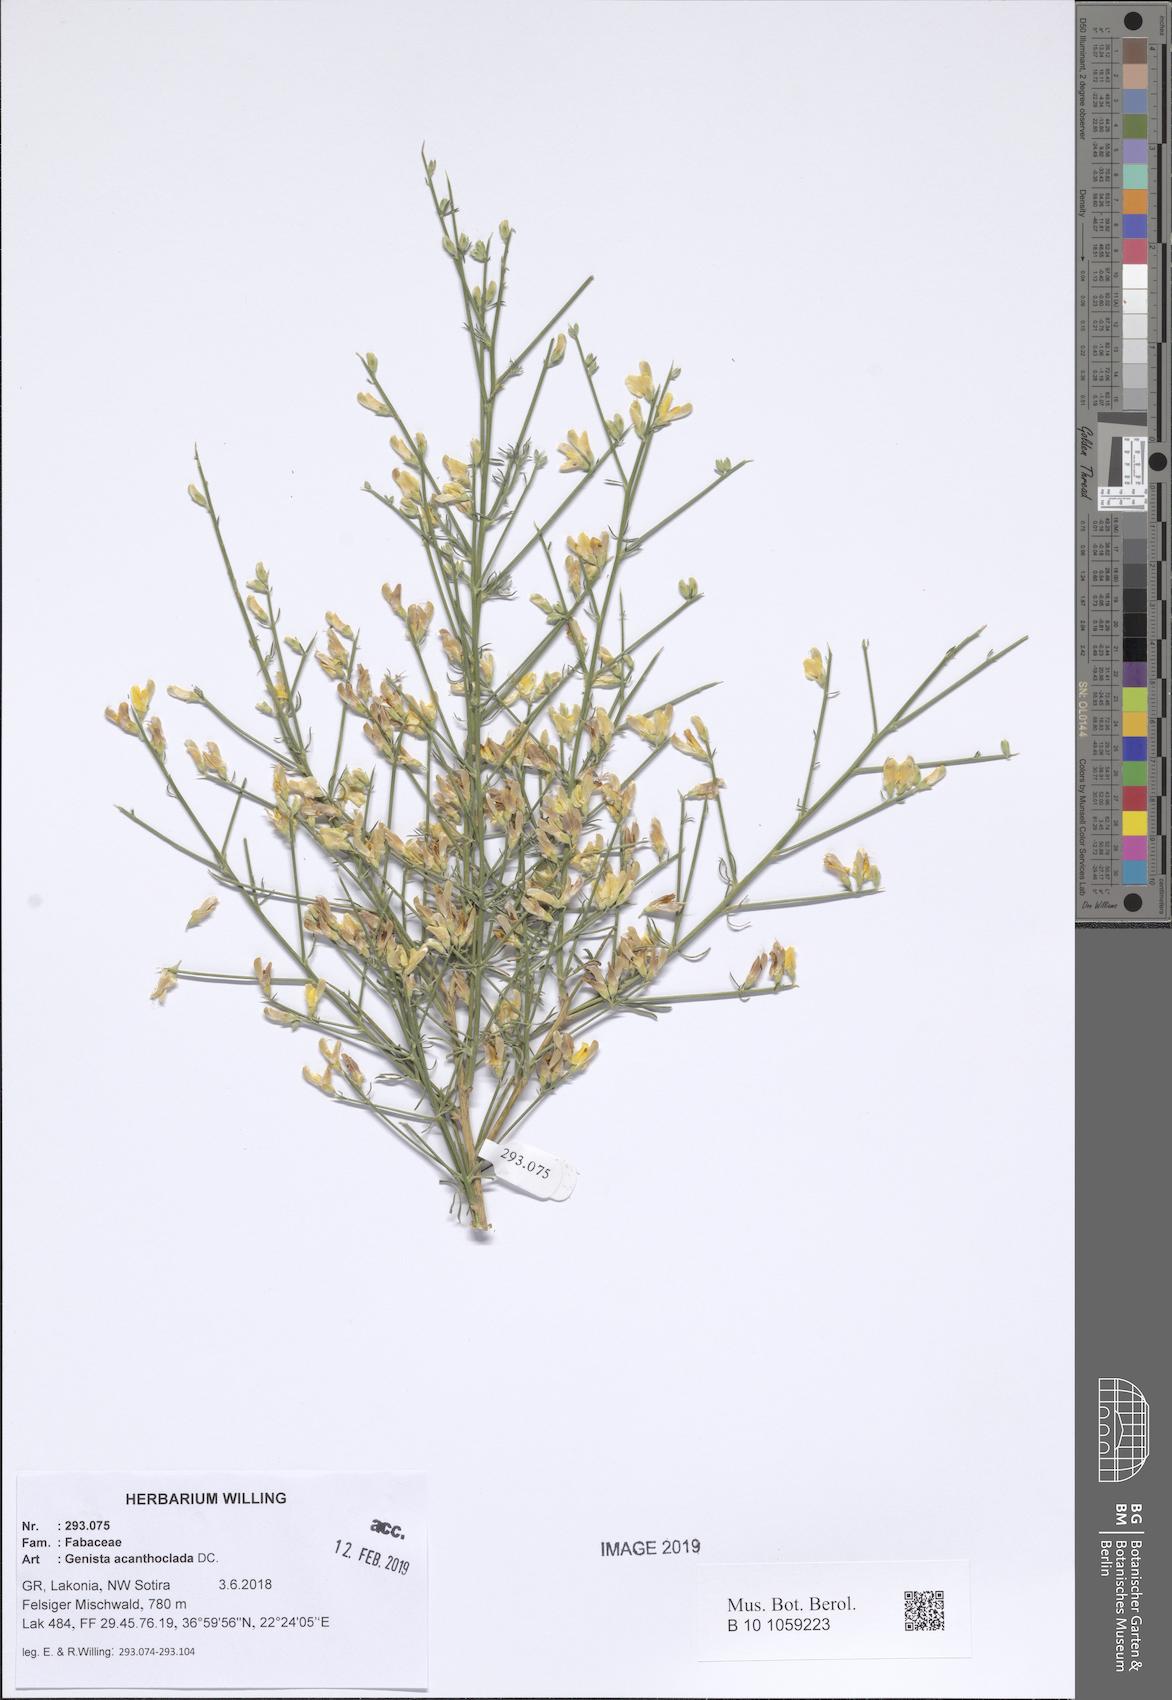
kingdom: Plantae
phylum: Tracheophyta
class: Magnoliopsida
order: Fabales
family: Fabaceae
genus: Genista
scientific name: Genista acanthoclada
